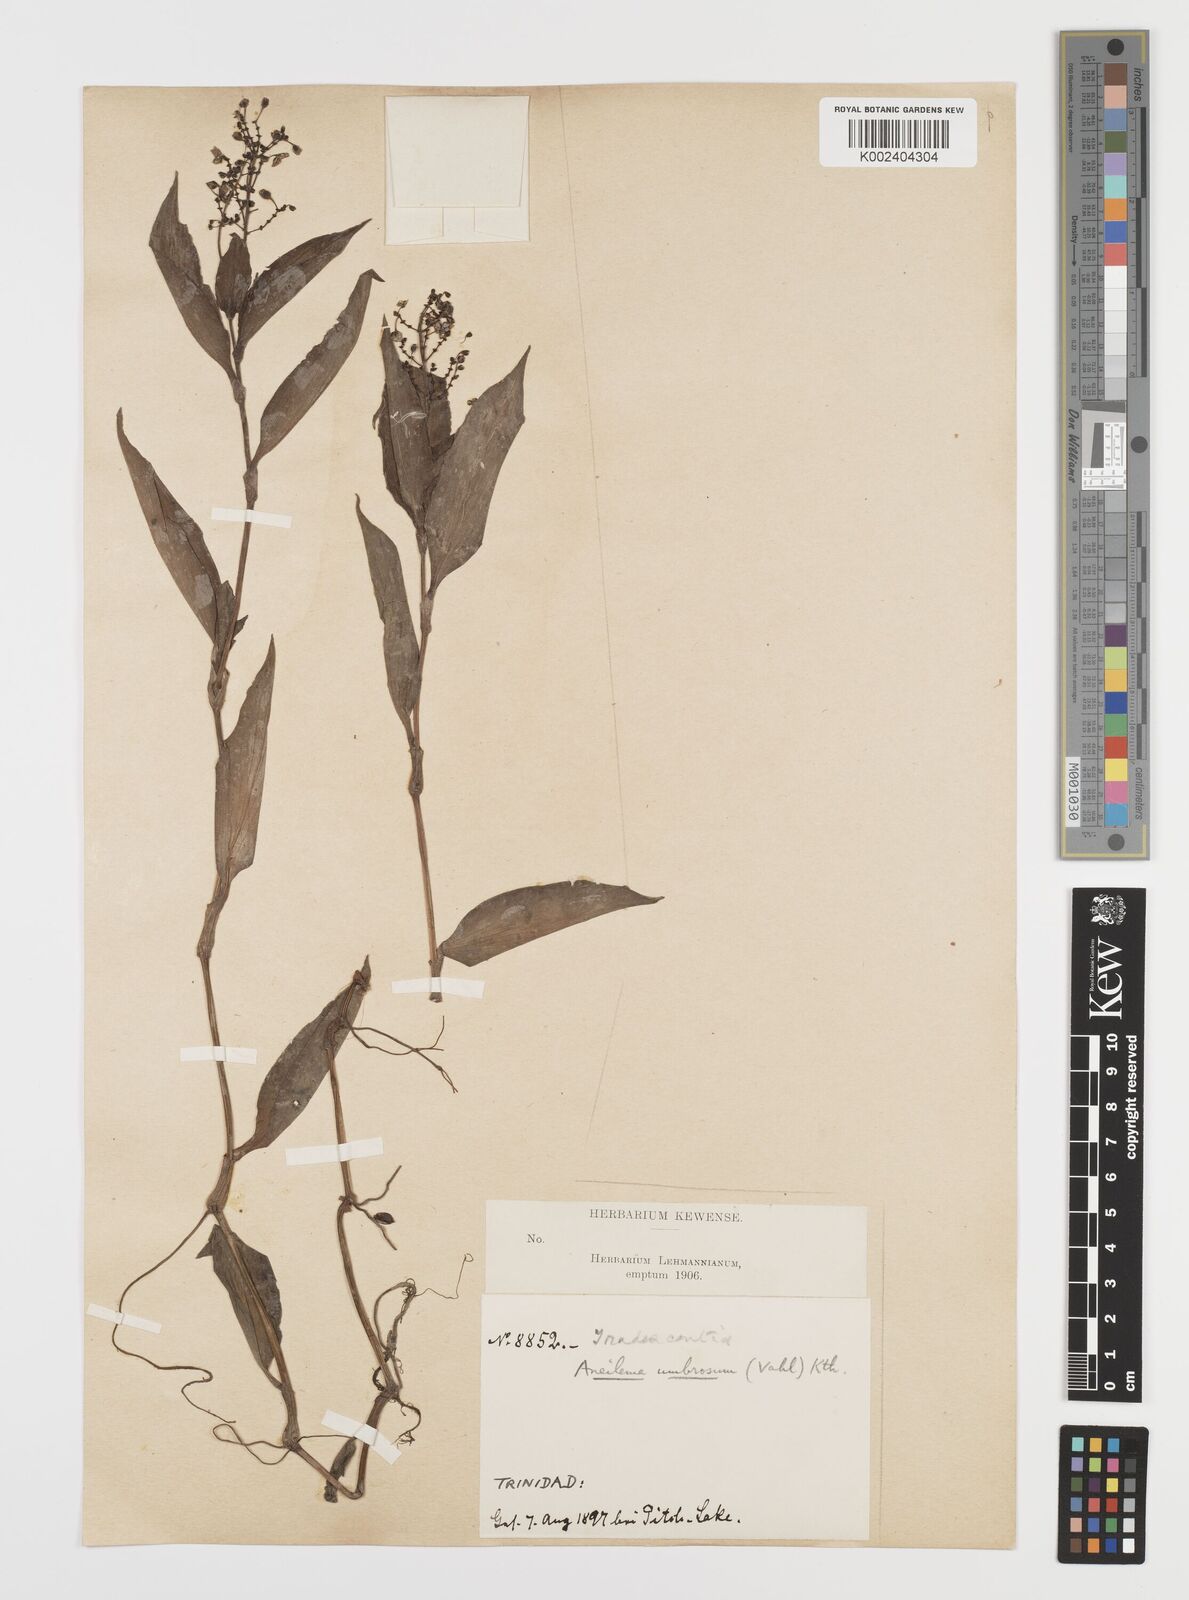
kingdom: Plantae
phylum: Tracheophyta
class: Liliopsida
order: Commelinales
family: Commelinaceae
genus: Aneilema
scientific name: Aneilema umbrosum
